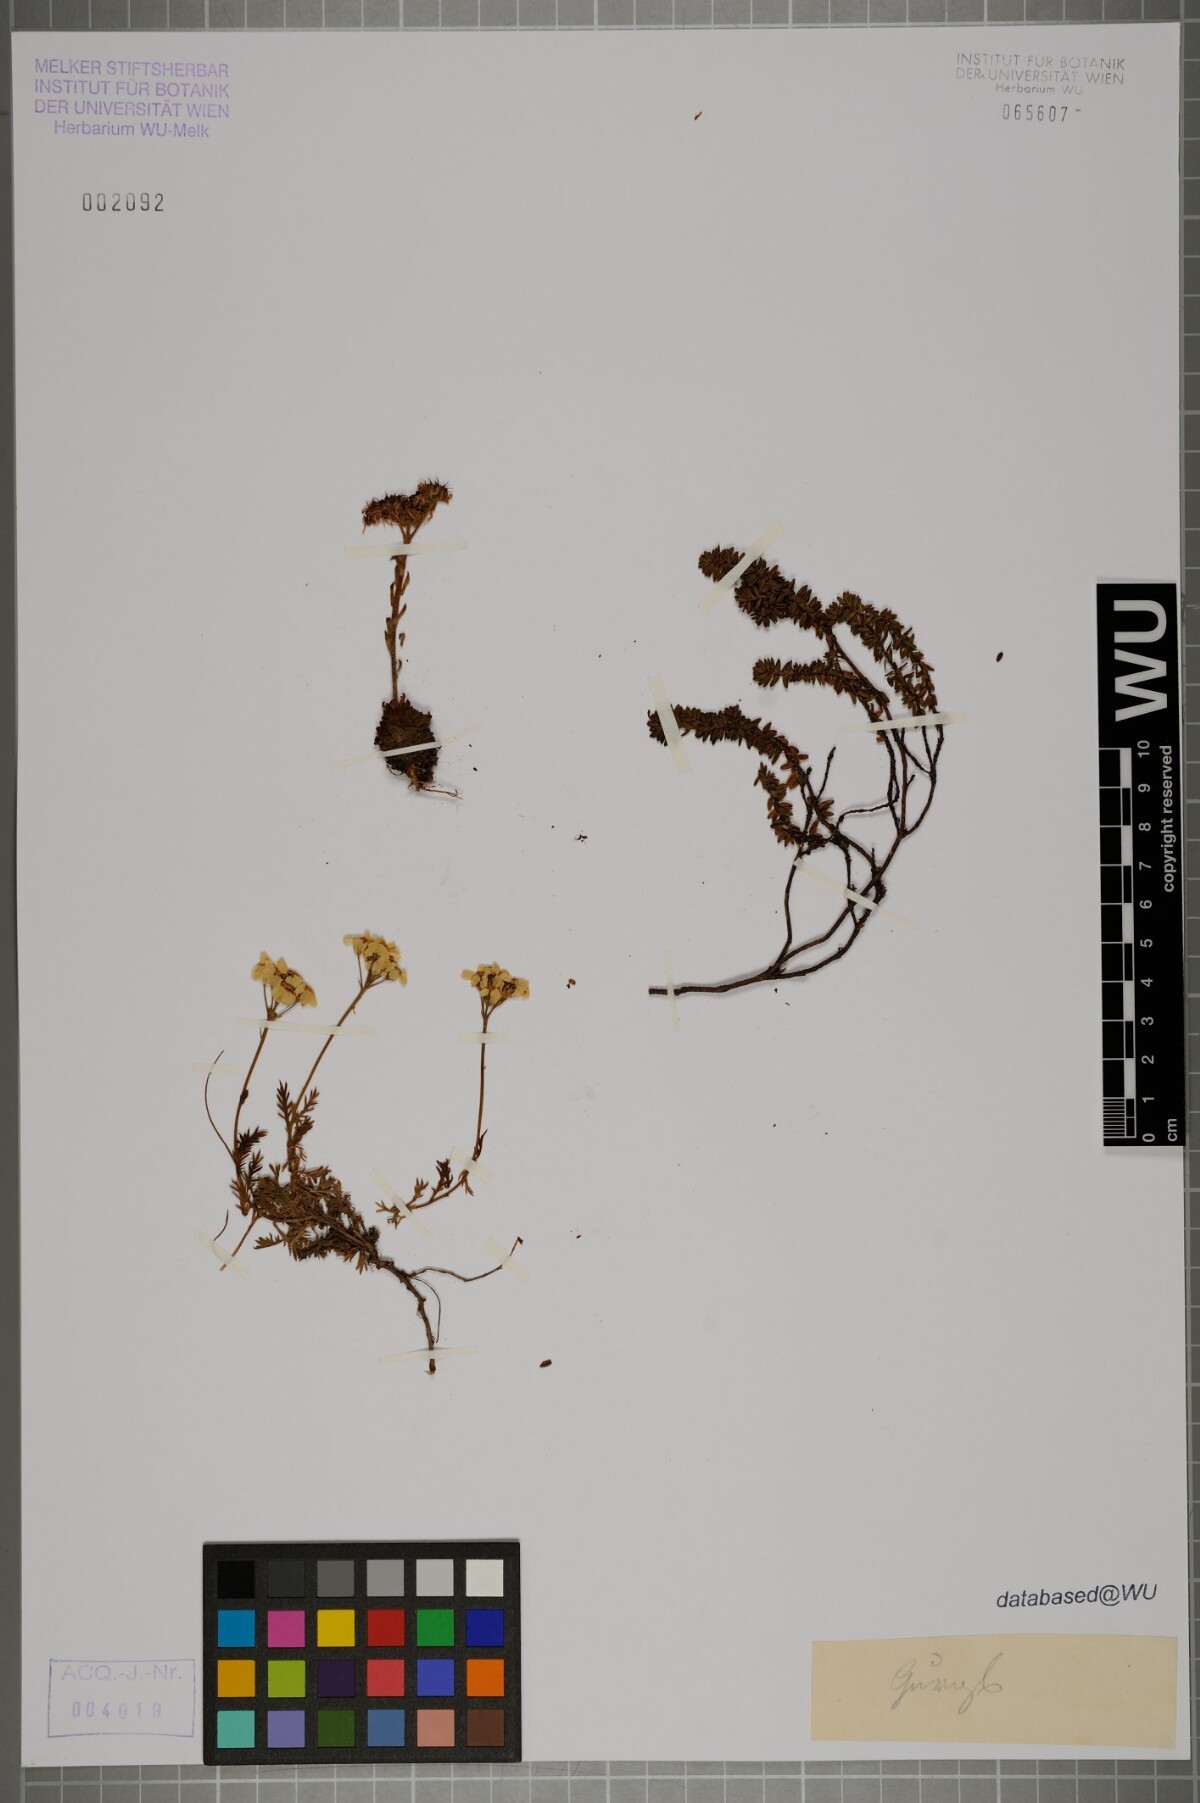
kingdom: Plantae
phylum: Tracheophyta
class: Magnoliopsida
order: Asterales
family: Asteraceae
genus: Achillea
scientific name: Achillea atrata
